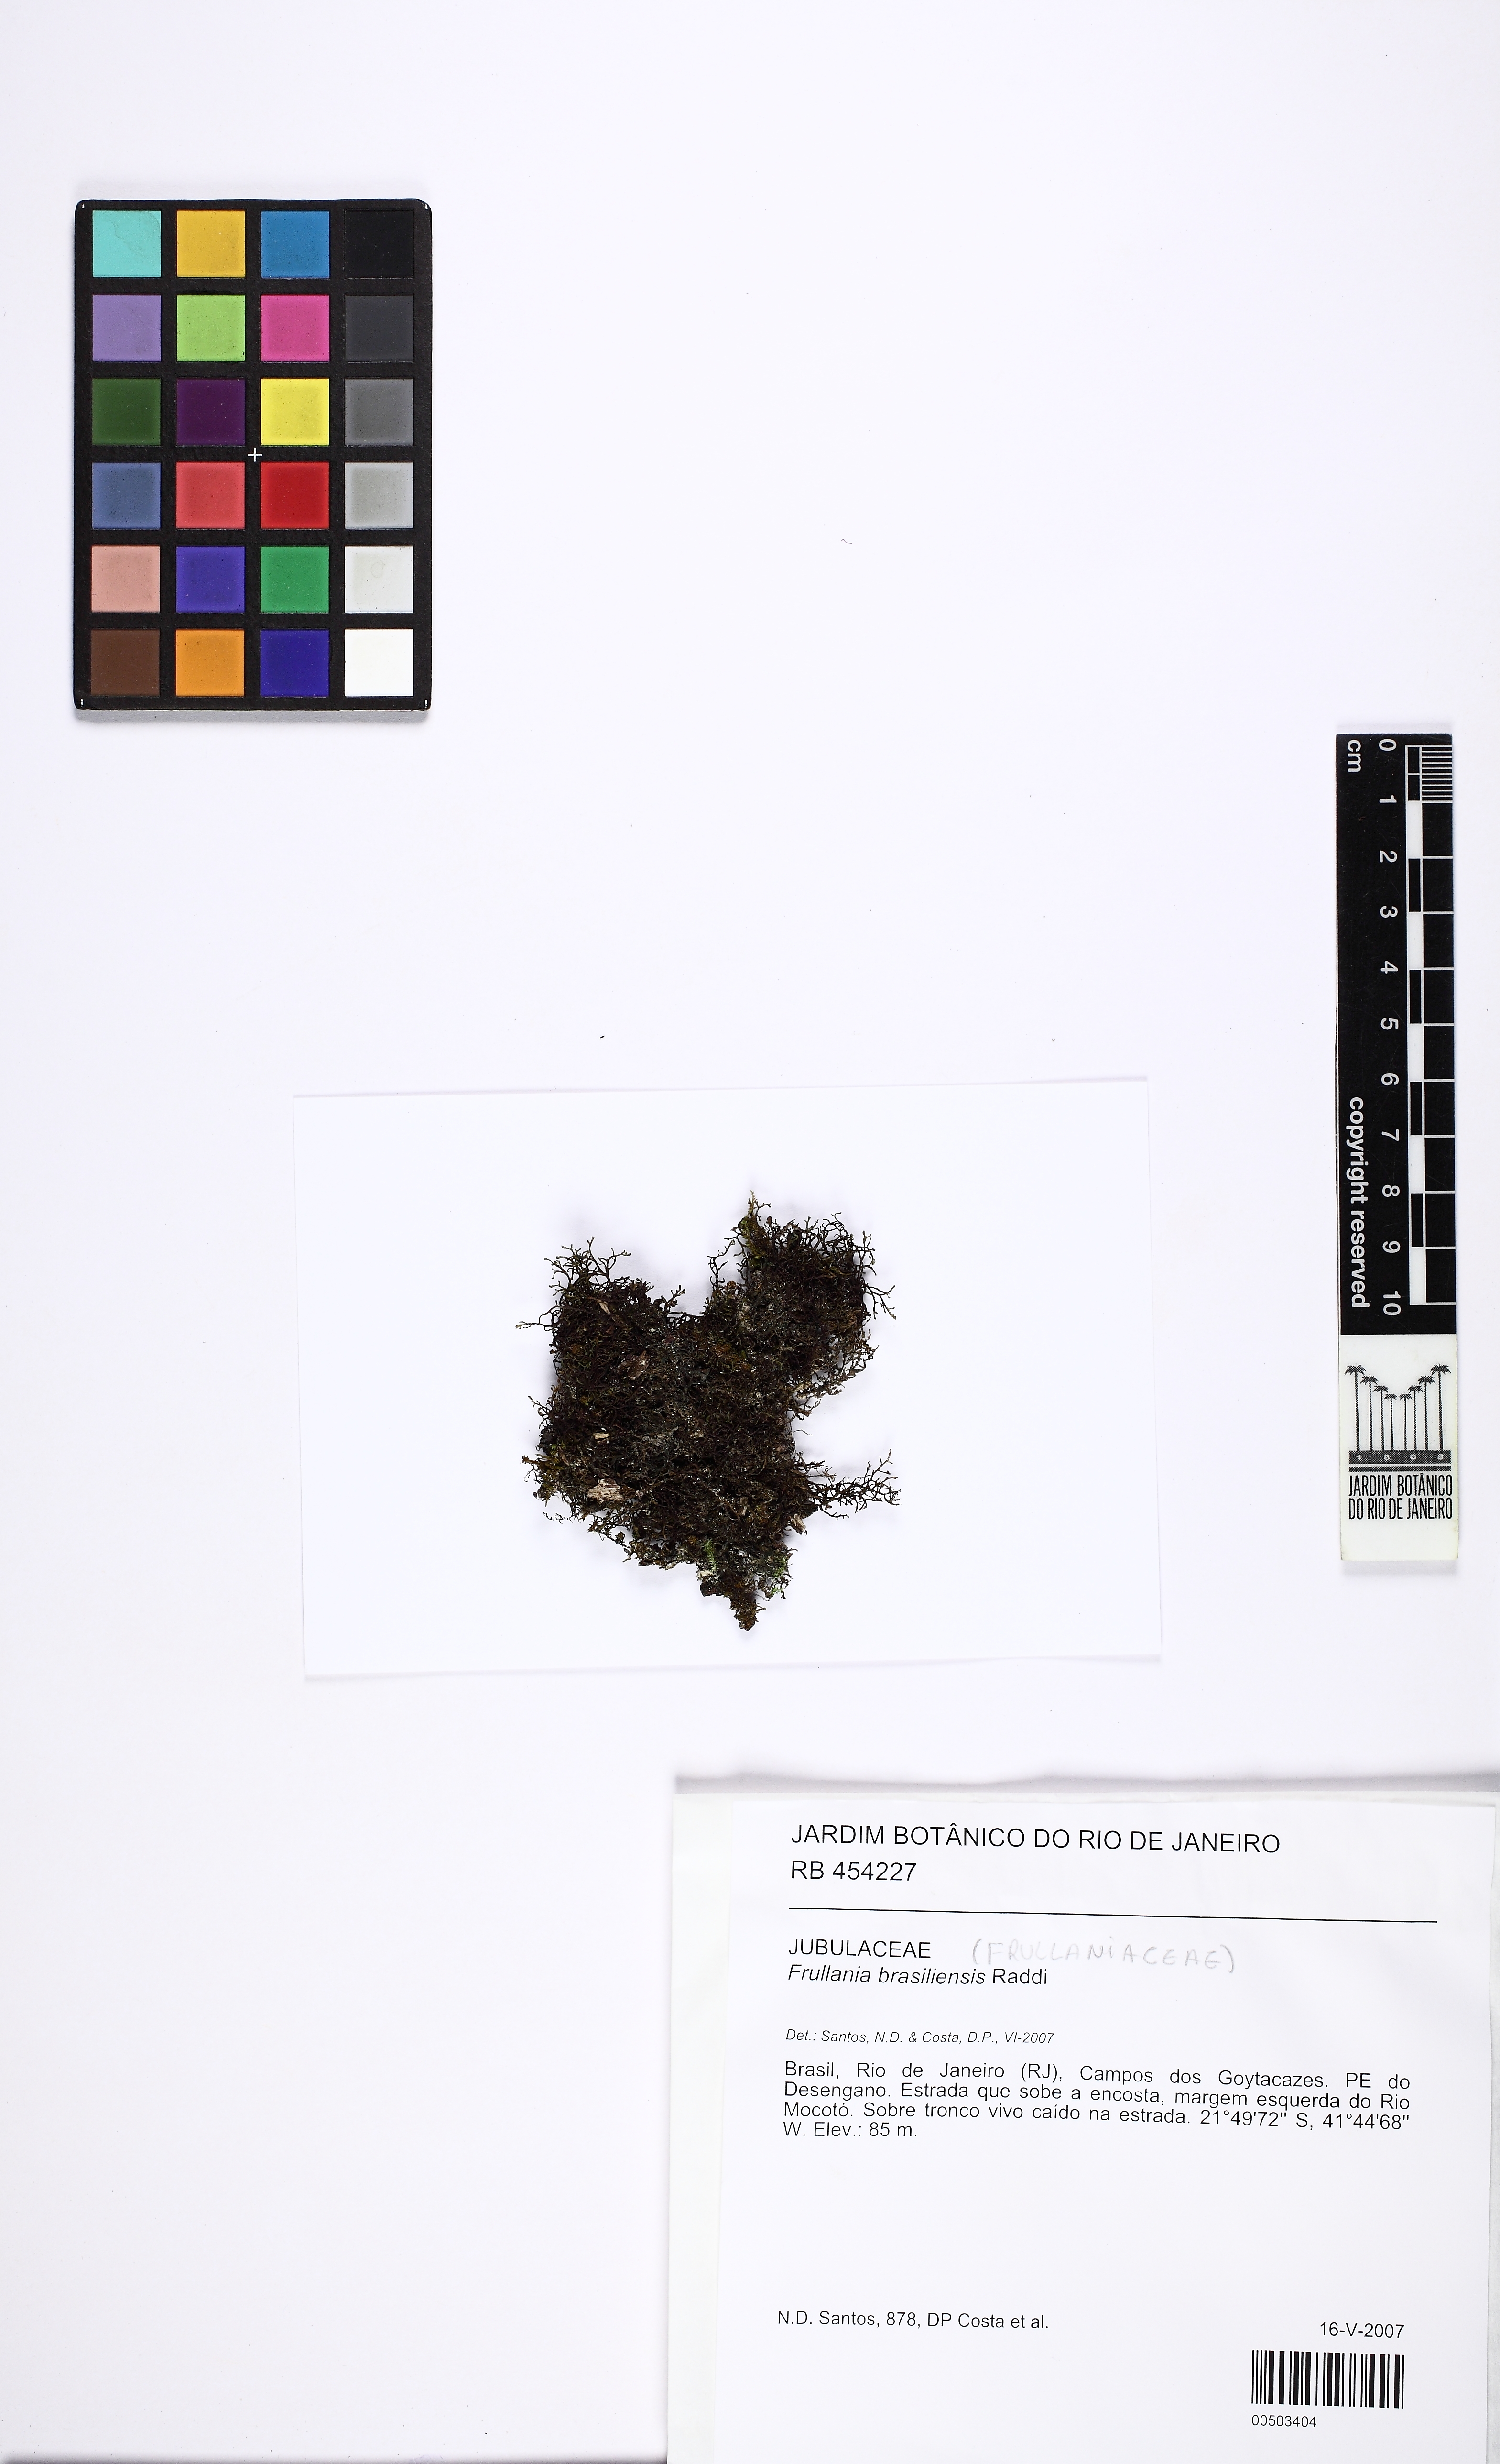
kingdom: Plantae
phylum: Marchantiophyta
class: Jungermanniopsida
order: Porellales
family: Frullaniaceae
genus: Frullania
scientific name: Frullania brasiliensis
